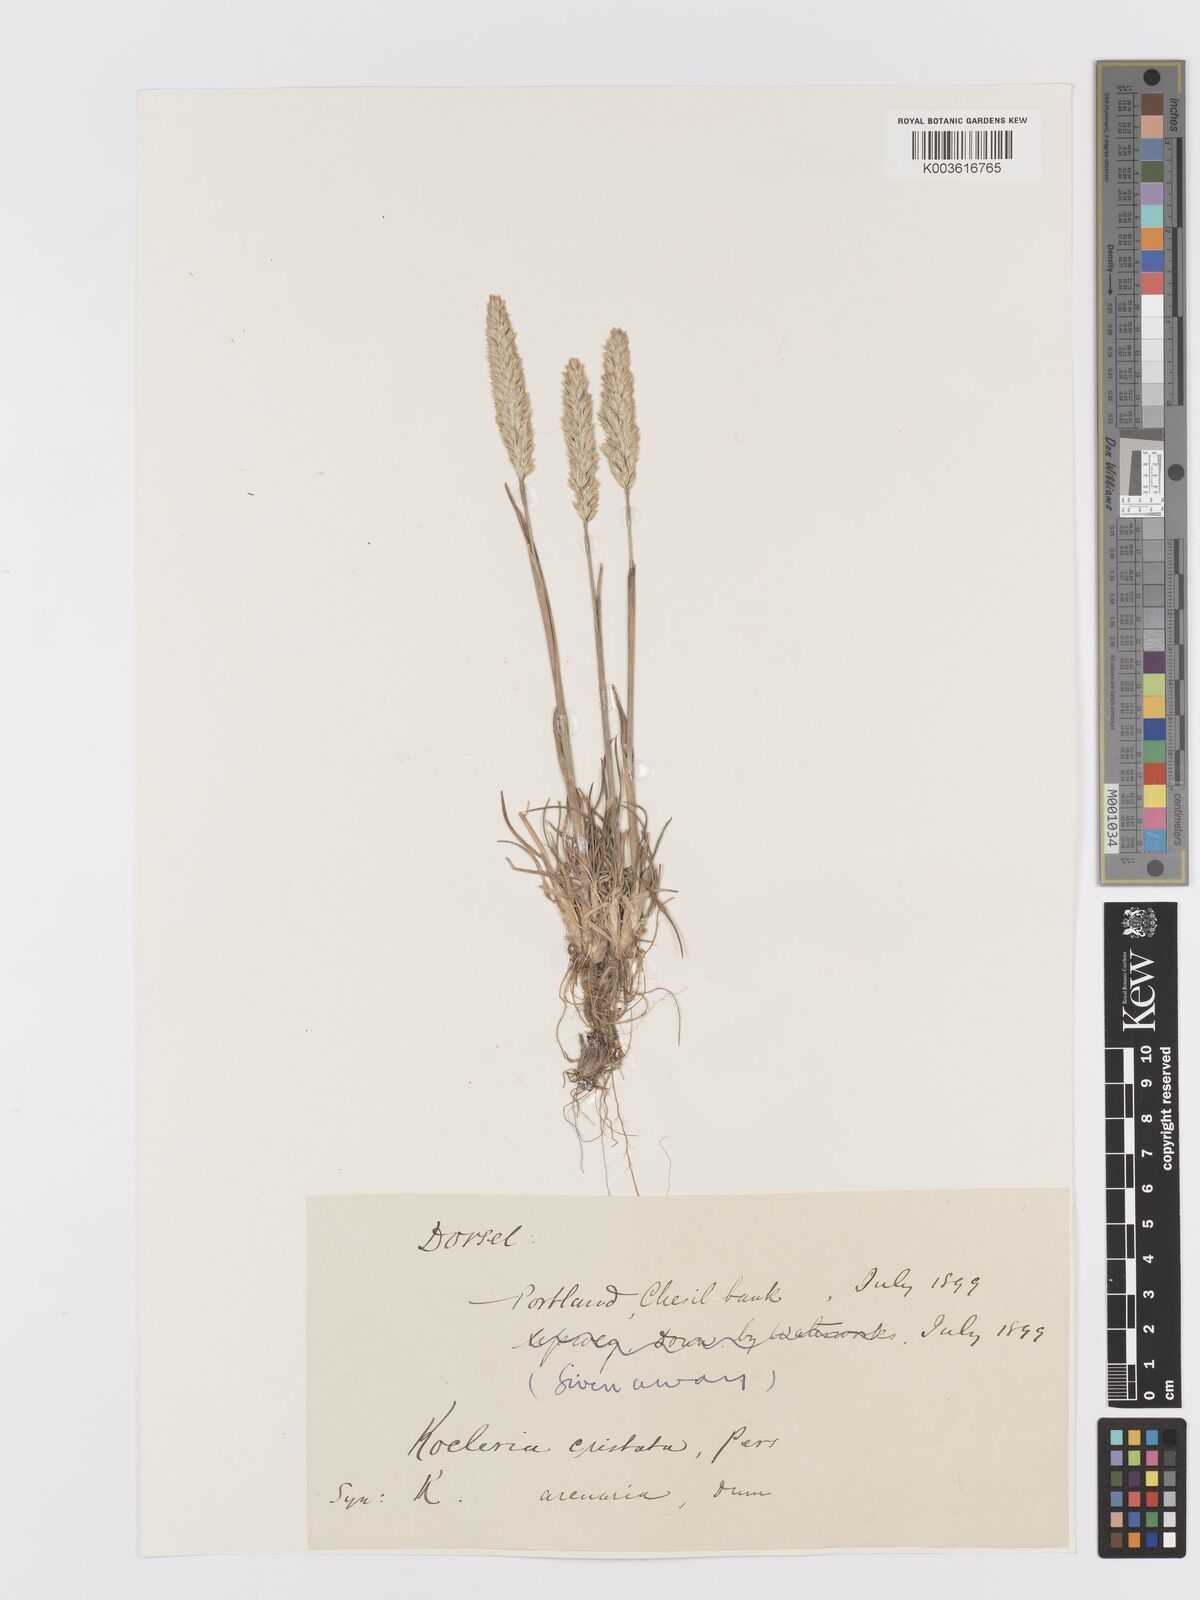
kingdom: Plantae
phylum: Tracheophyta
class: Liliopsida
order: Poales
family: Poaceae
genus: Koeleria
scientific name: Koeleria
